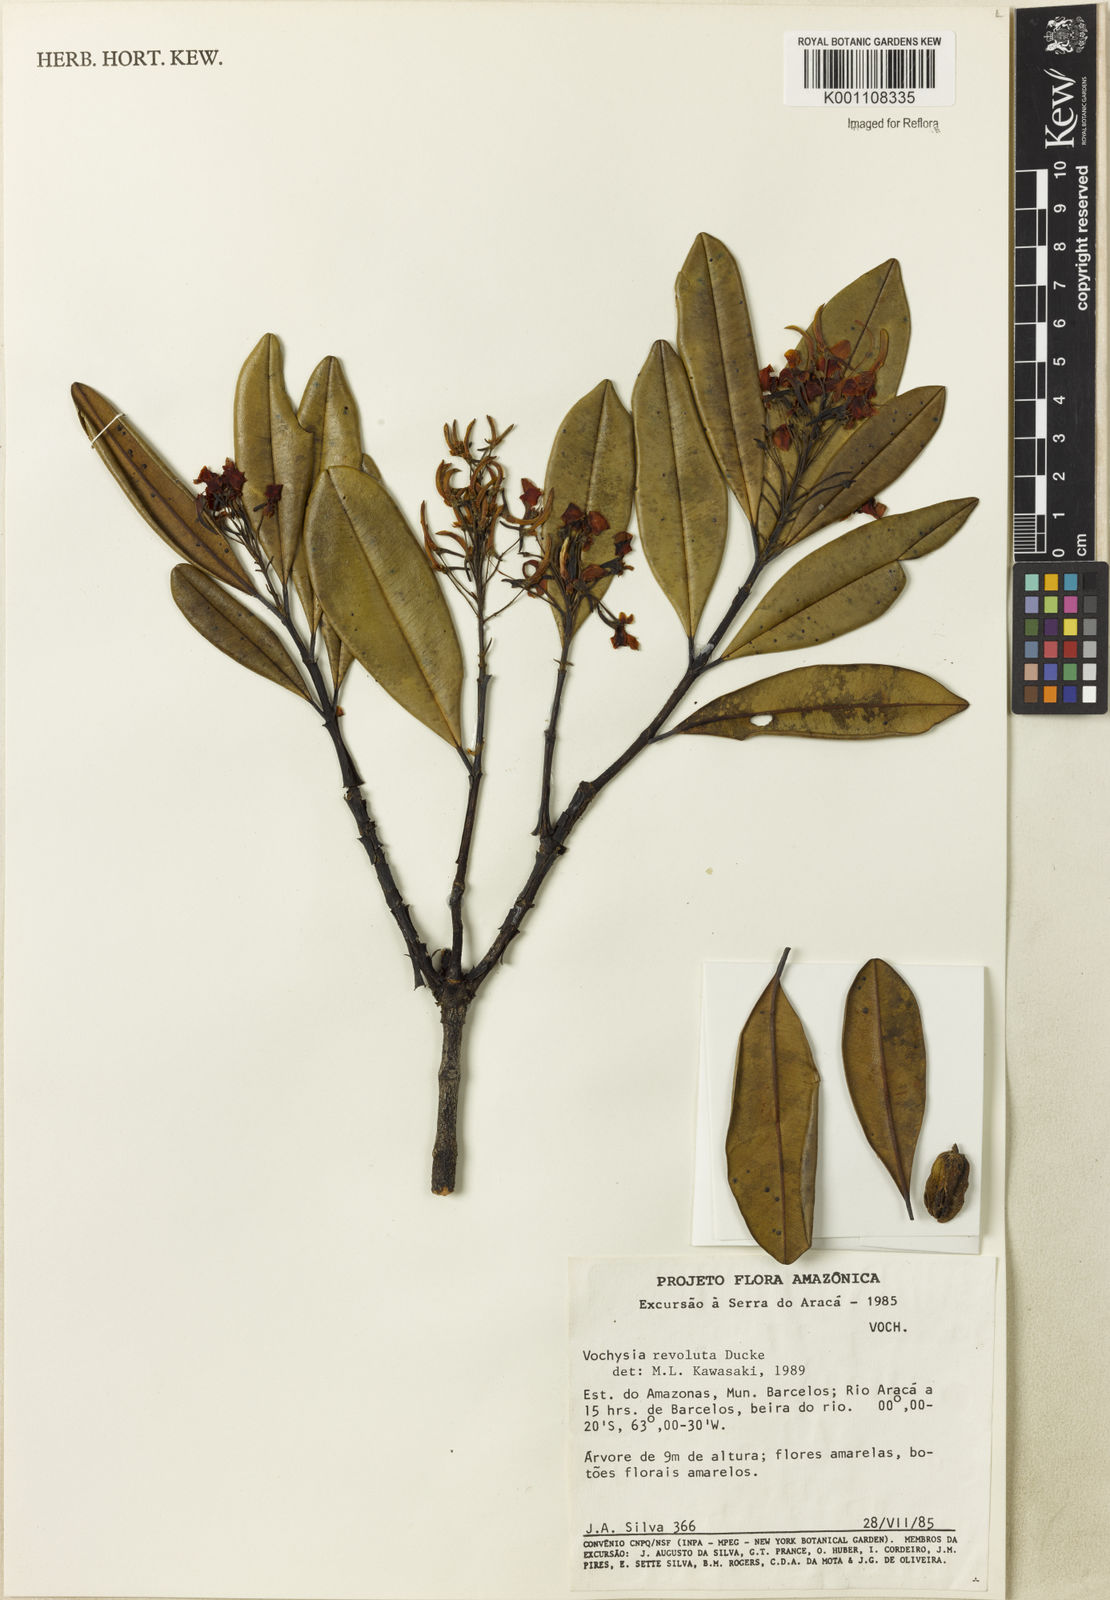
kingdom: Plantae
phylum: Tracheophyta
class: Magnoliopsida
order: Myrtales
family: Vochysiaceae
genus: Vochysia
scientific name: Vochysia revoluta
